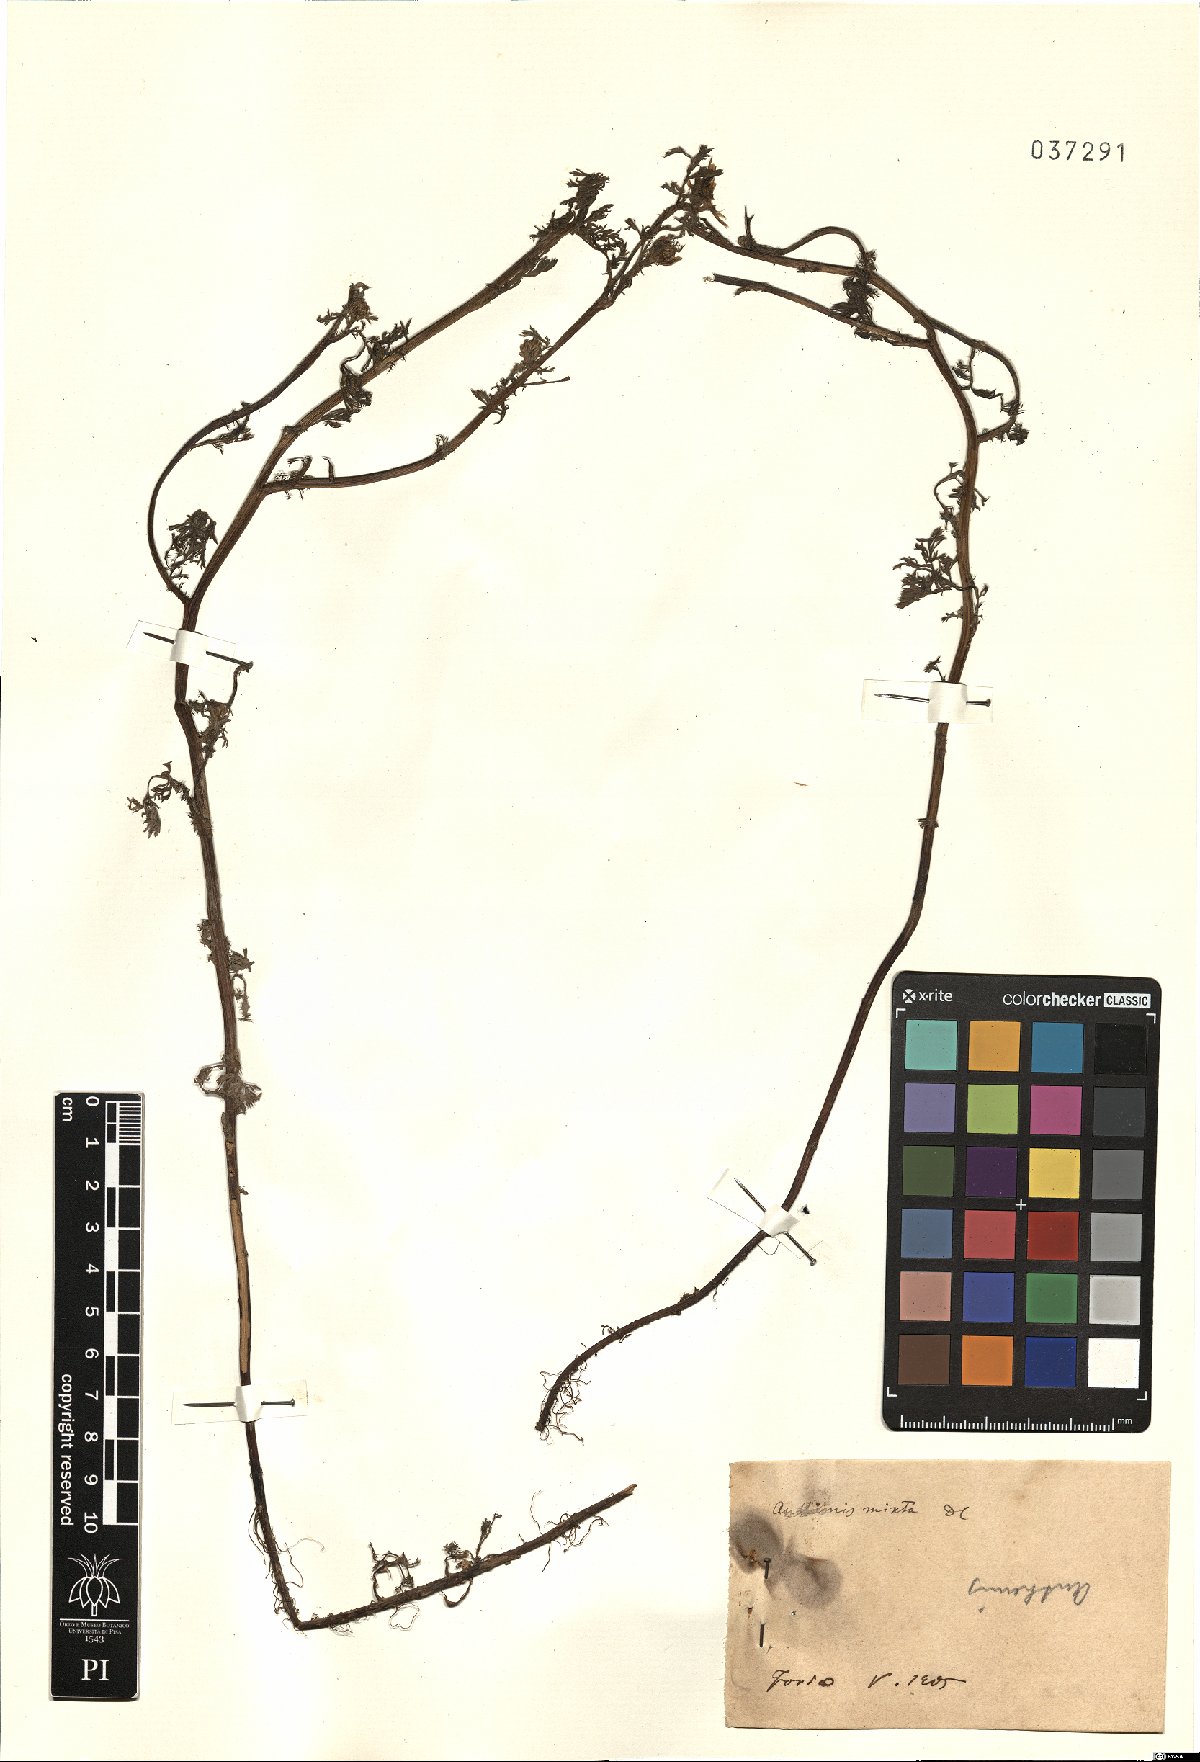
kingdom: Plantae
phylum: Tracheophyta
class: Magnoliopsida
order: Asterales
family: Asteraceae
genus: Cladanthus
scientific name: Cladanthus mixtus
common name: Weedy dogfennel
